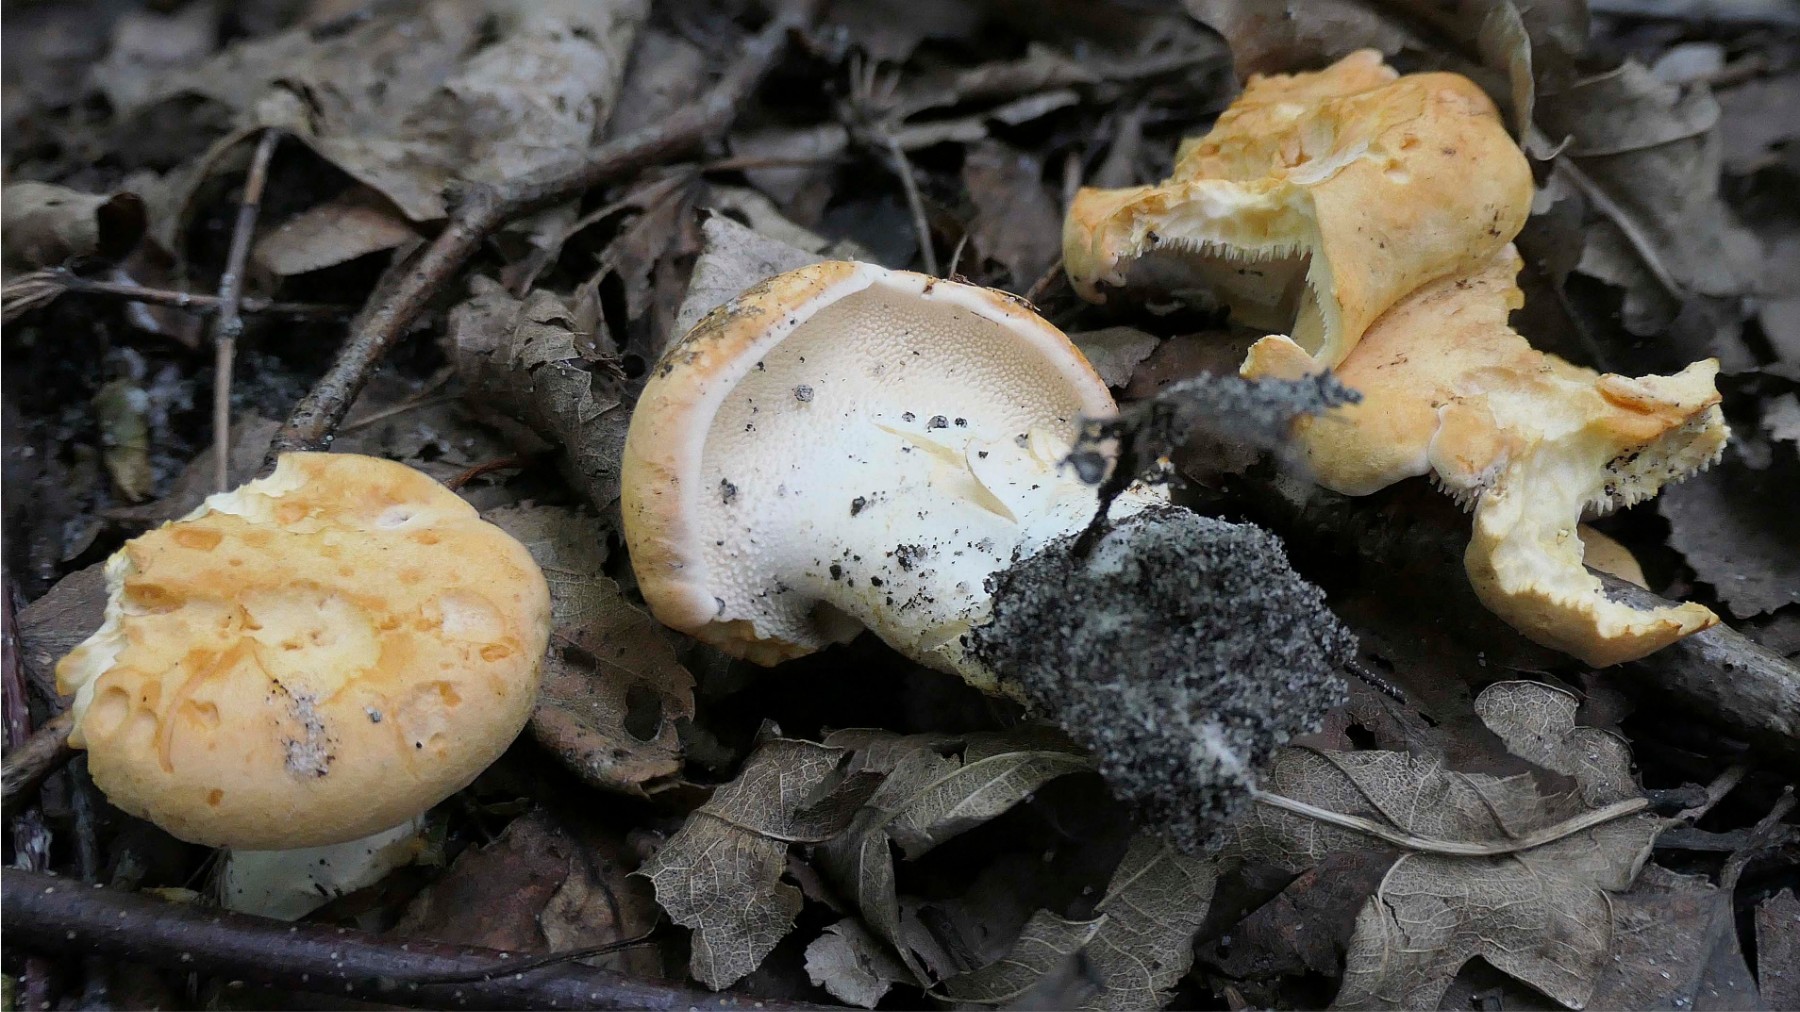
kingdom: Fungi
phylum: Basidiomycota
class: Agaricomycetes
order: Cantharellales
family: Hydnaceae
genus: Hydnum
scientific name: Hydnum
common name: pigsvamp
